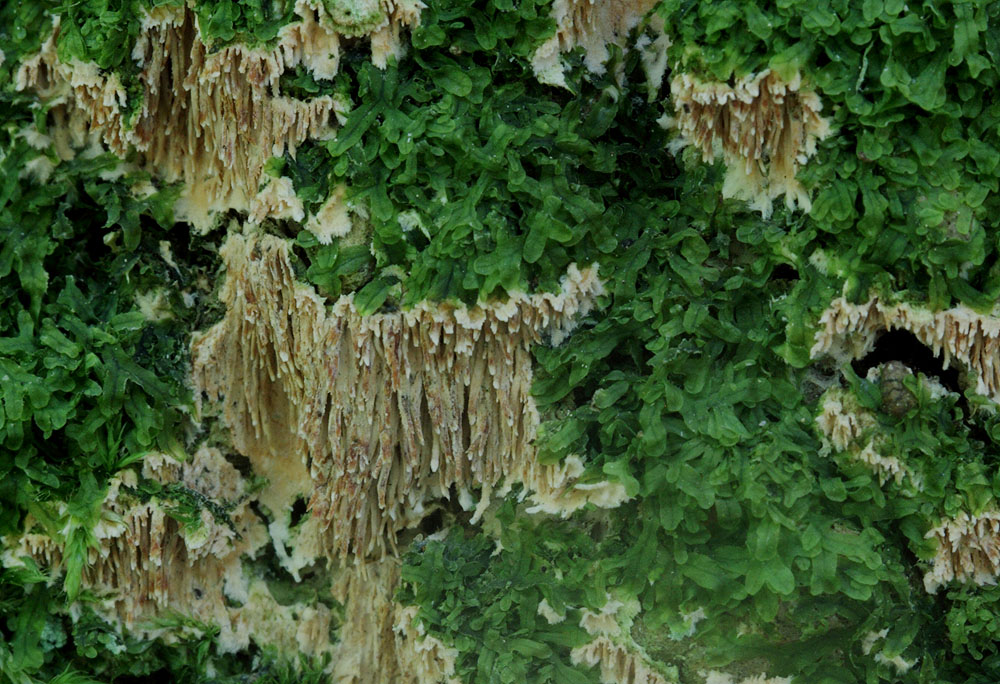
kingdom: Fungi
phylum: Basidiomycota
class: Agaricomycetes
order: Polyporales
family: Steccherinaceae
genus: Steccherinum
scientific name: Steccherinum robustius
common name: stor skønpig
